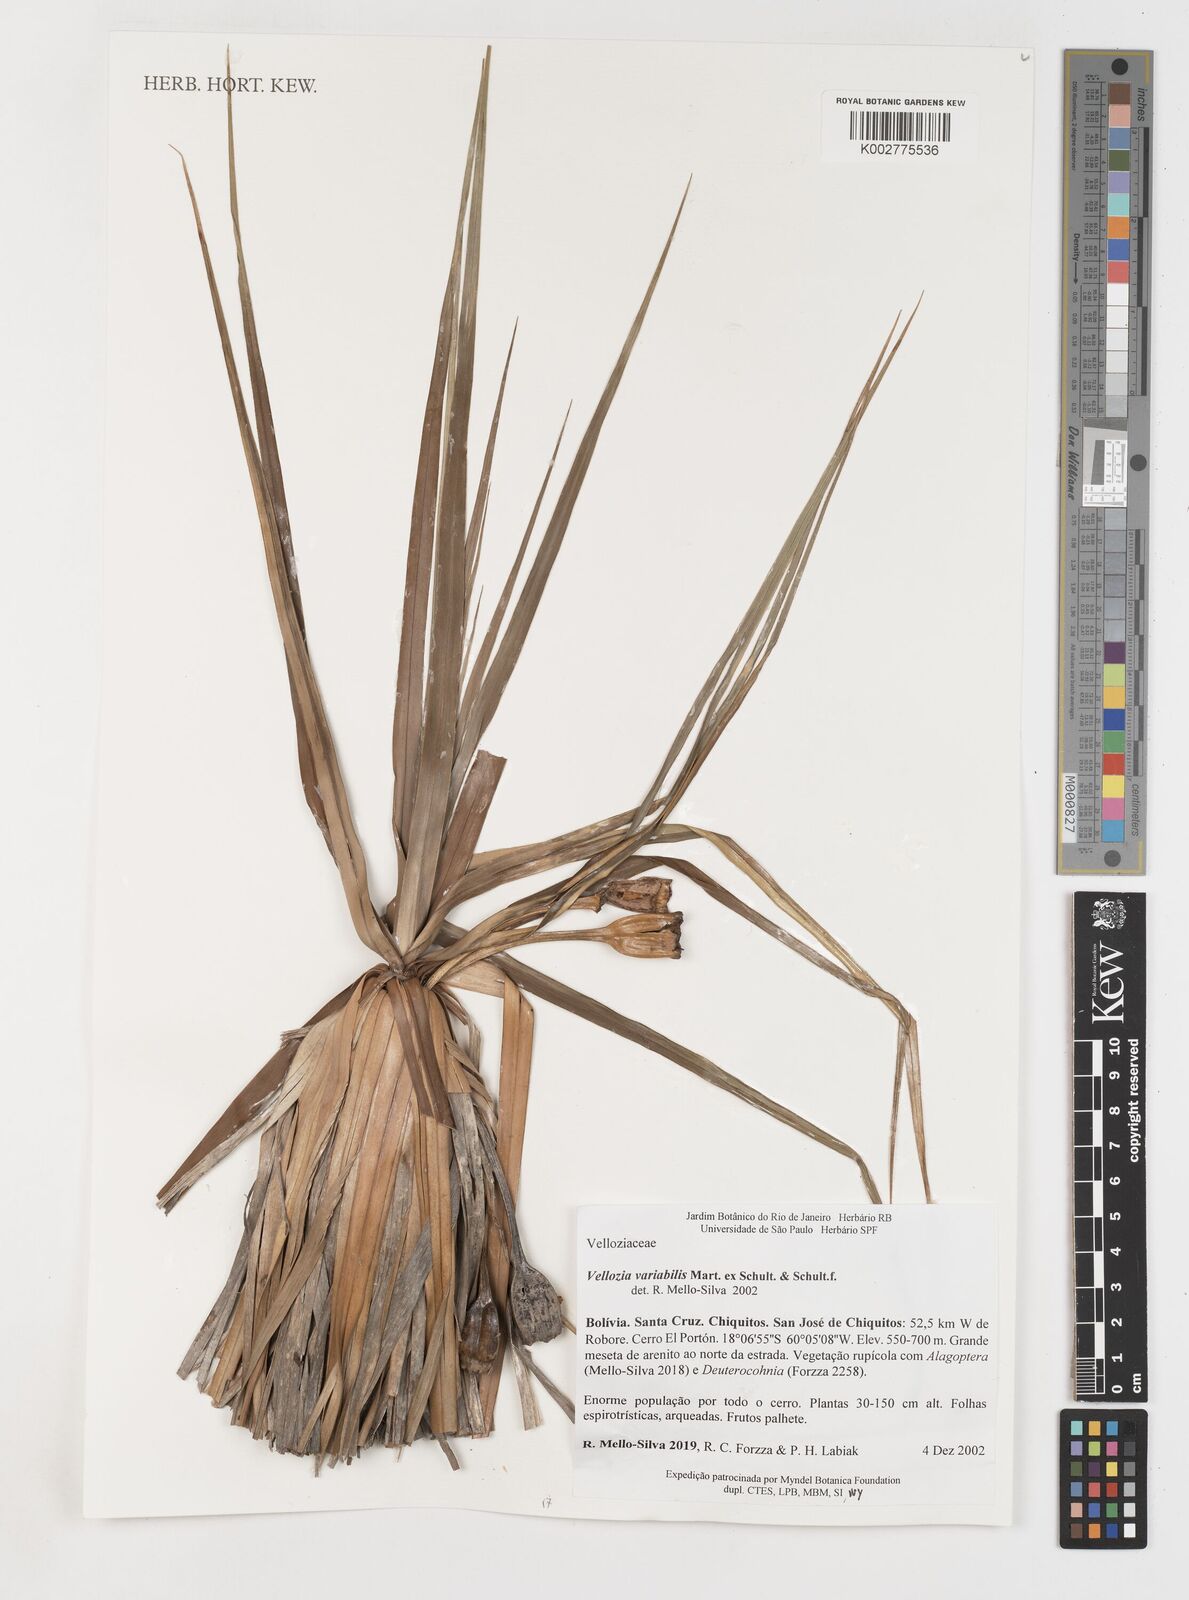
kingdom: Plantae
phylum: Tracheophyta
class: Liliopsida
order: Pandanales
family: Velloziaceae
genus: Vellozia
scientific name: Vellozia alutacea
